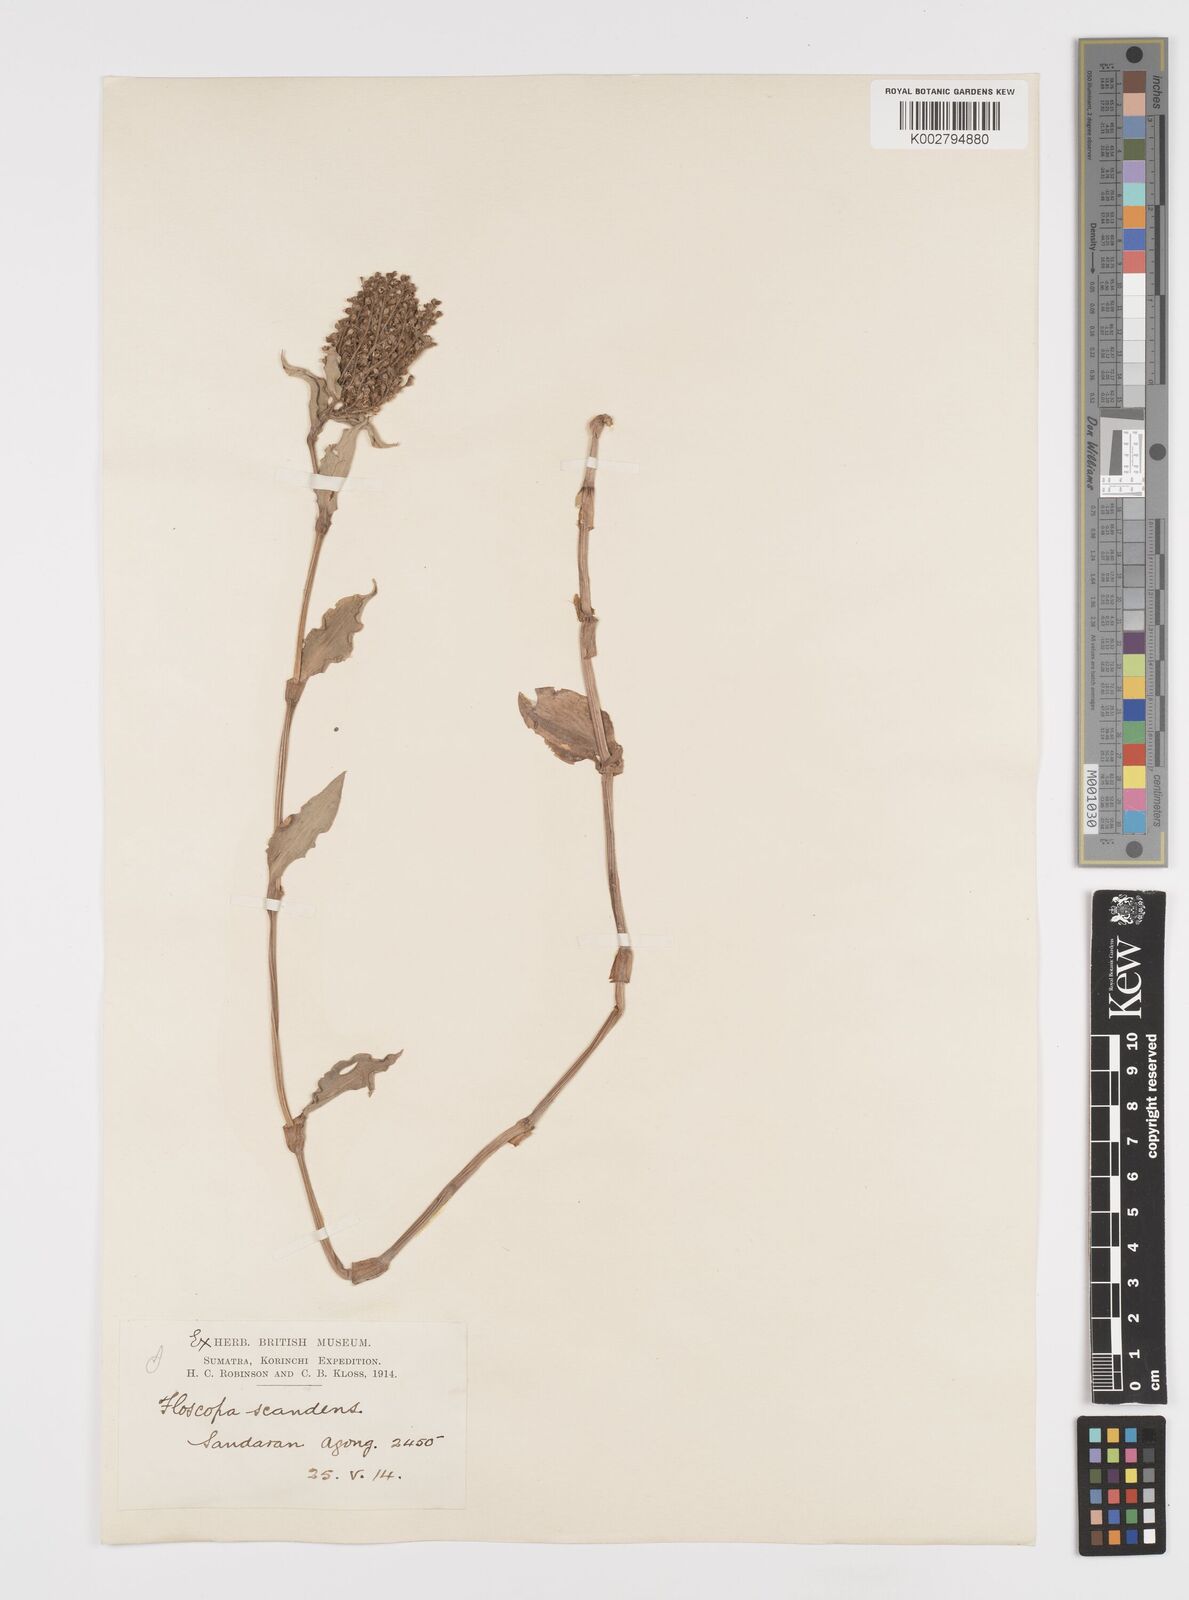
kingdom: Plantae
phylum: Tracheophyta
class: Liliopsida
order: Commelinales
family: Commelinaceae
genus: Floscopa
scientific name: Floscopa scandens
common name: Climbing flower cup
